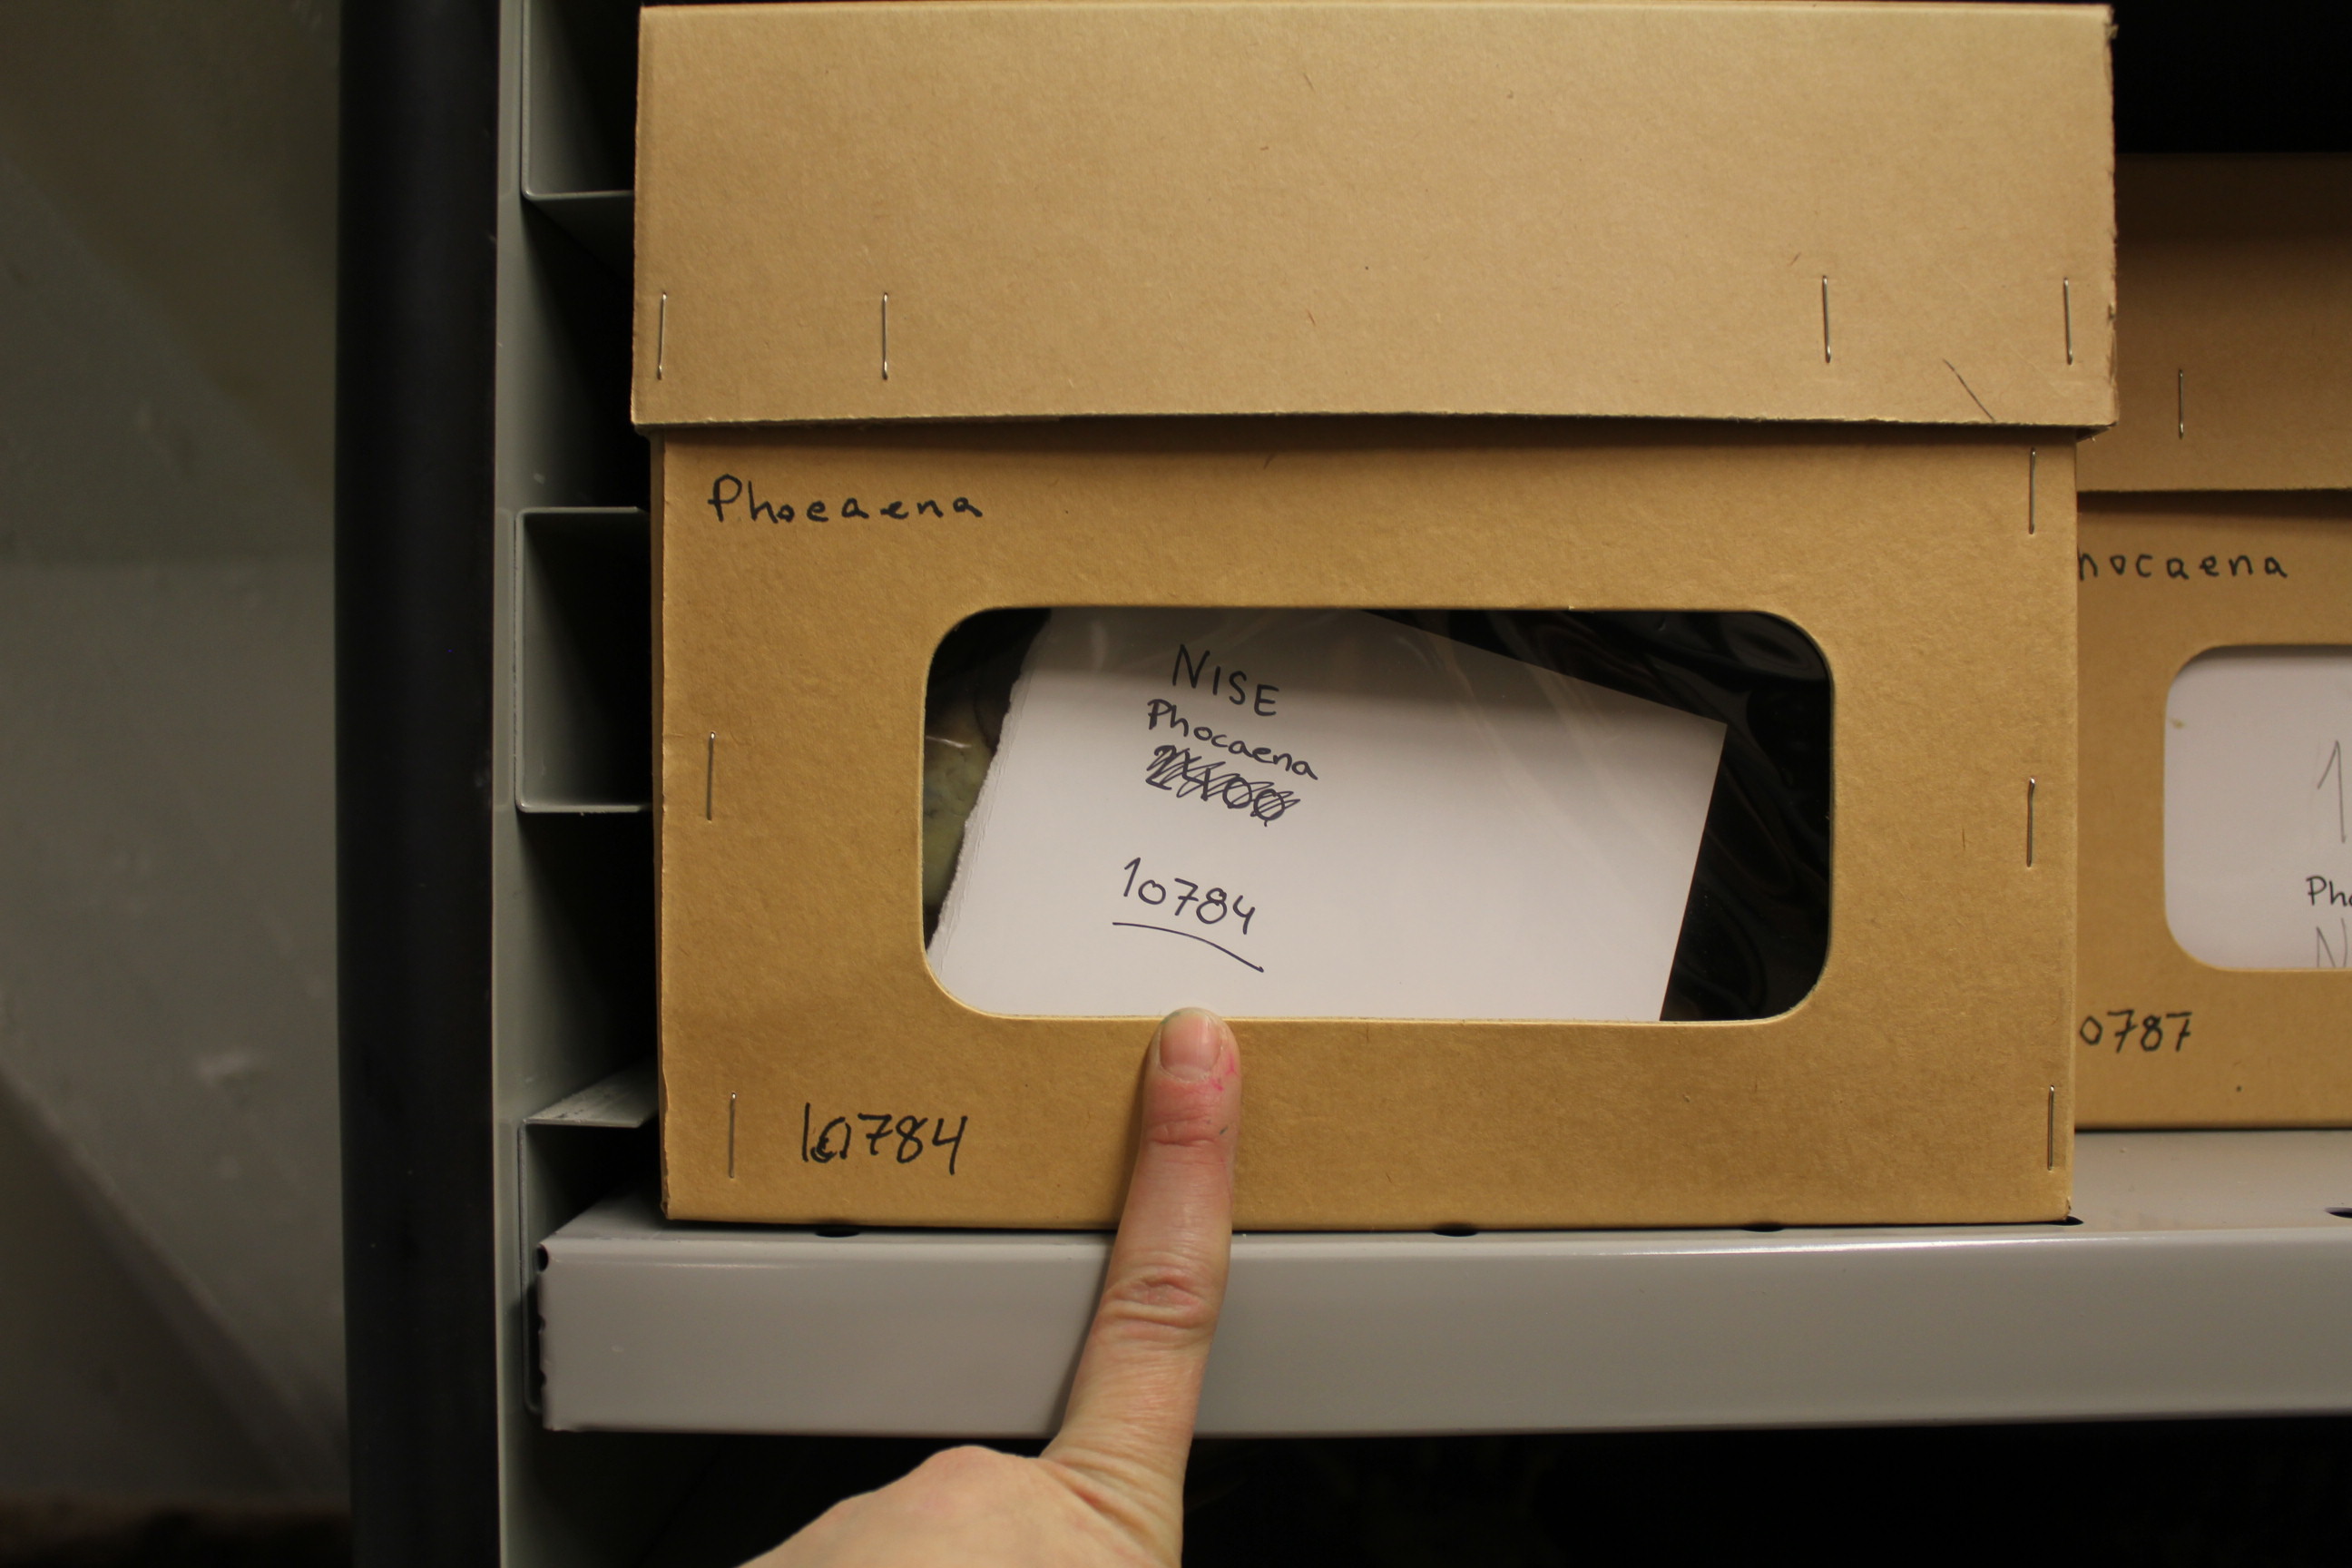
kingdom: Animalia
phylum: Chordata
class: Mammalia
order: Cetacea
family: Phocoenidae
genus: Phocoena
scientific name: Phocoena phocoena
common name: Harbor porpoise
